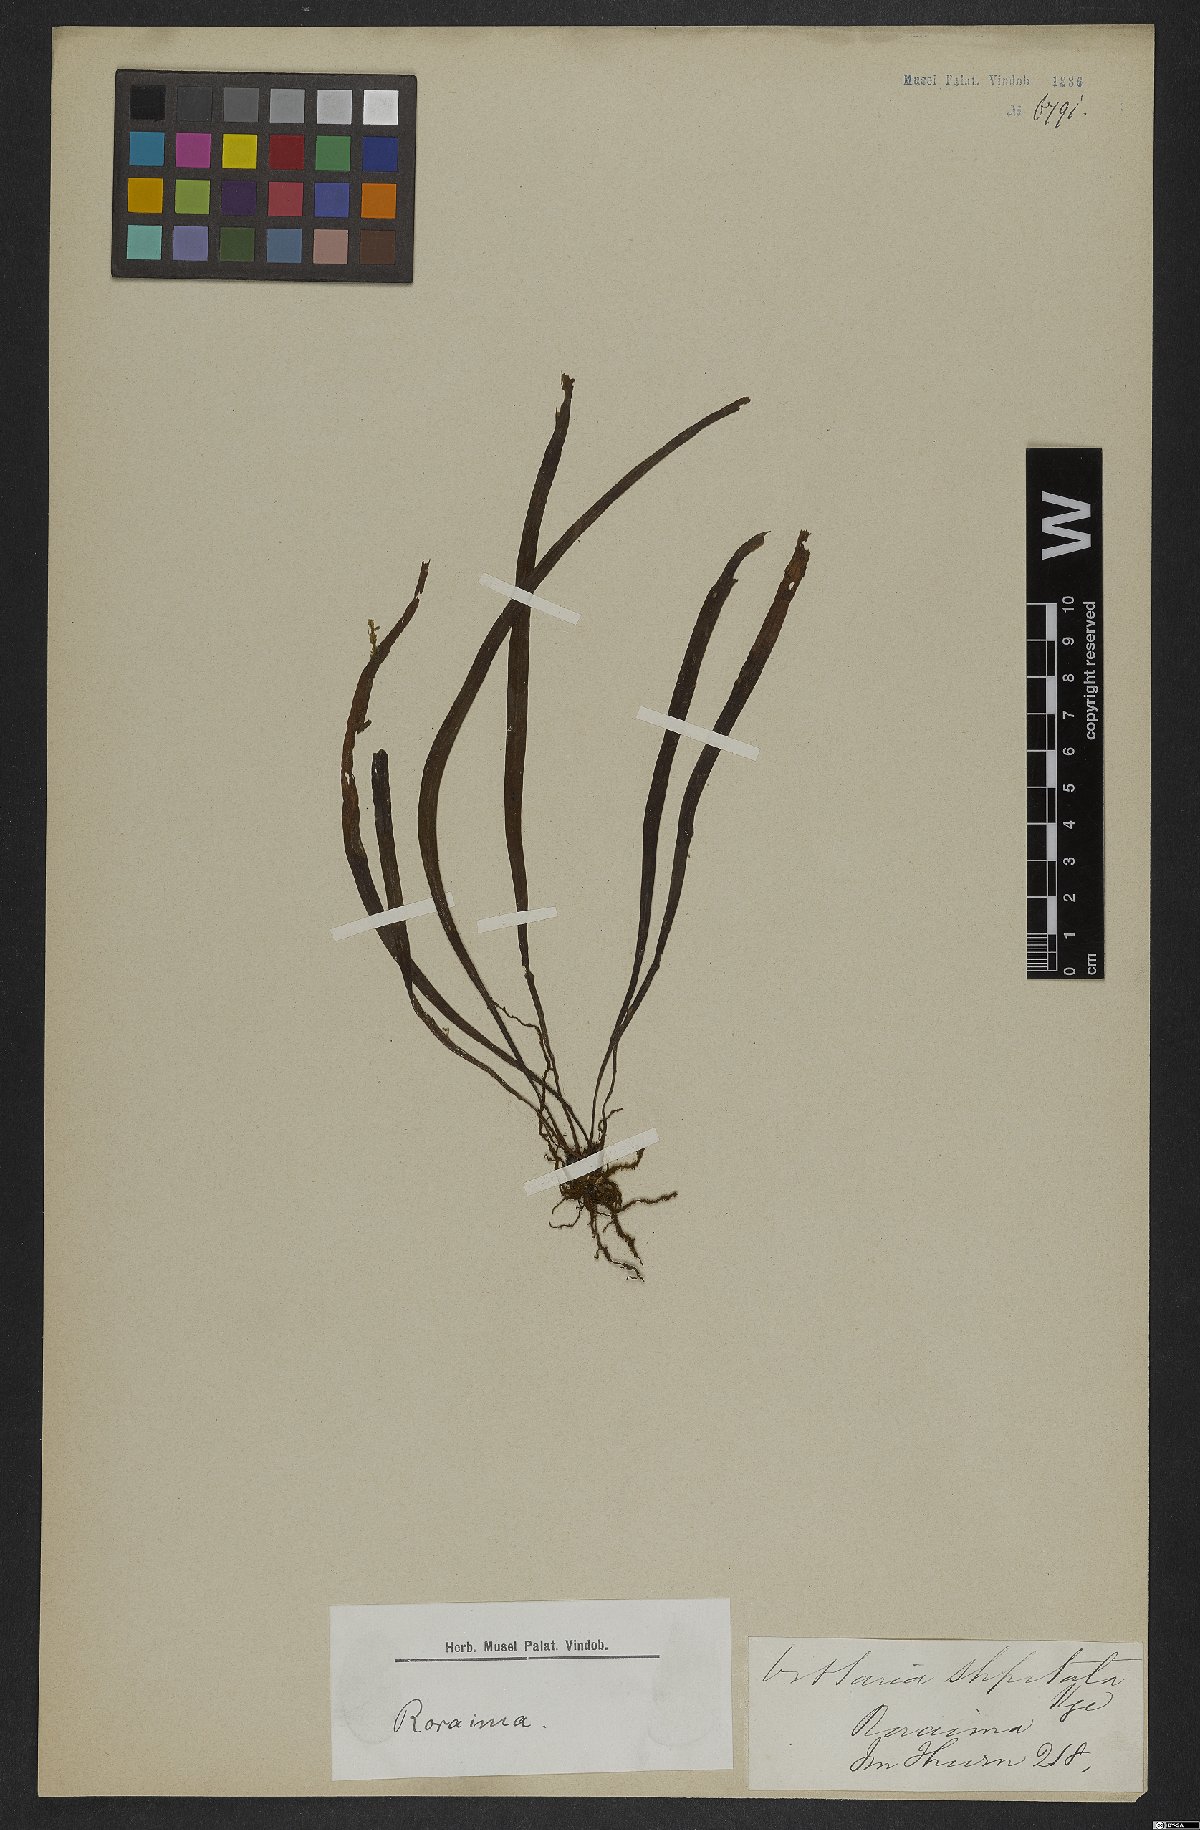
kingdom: Plantae
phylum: Tracheophyta
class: Polypodiopsida
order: Polypodiales
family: Pteridaceae
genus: Radiovittaria
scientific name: Radiovittaria stipitata
